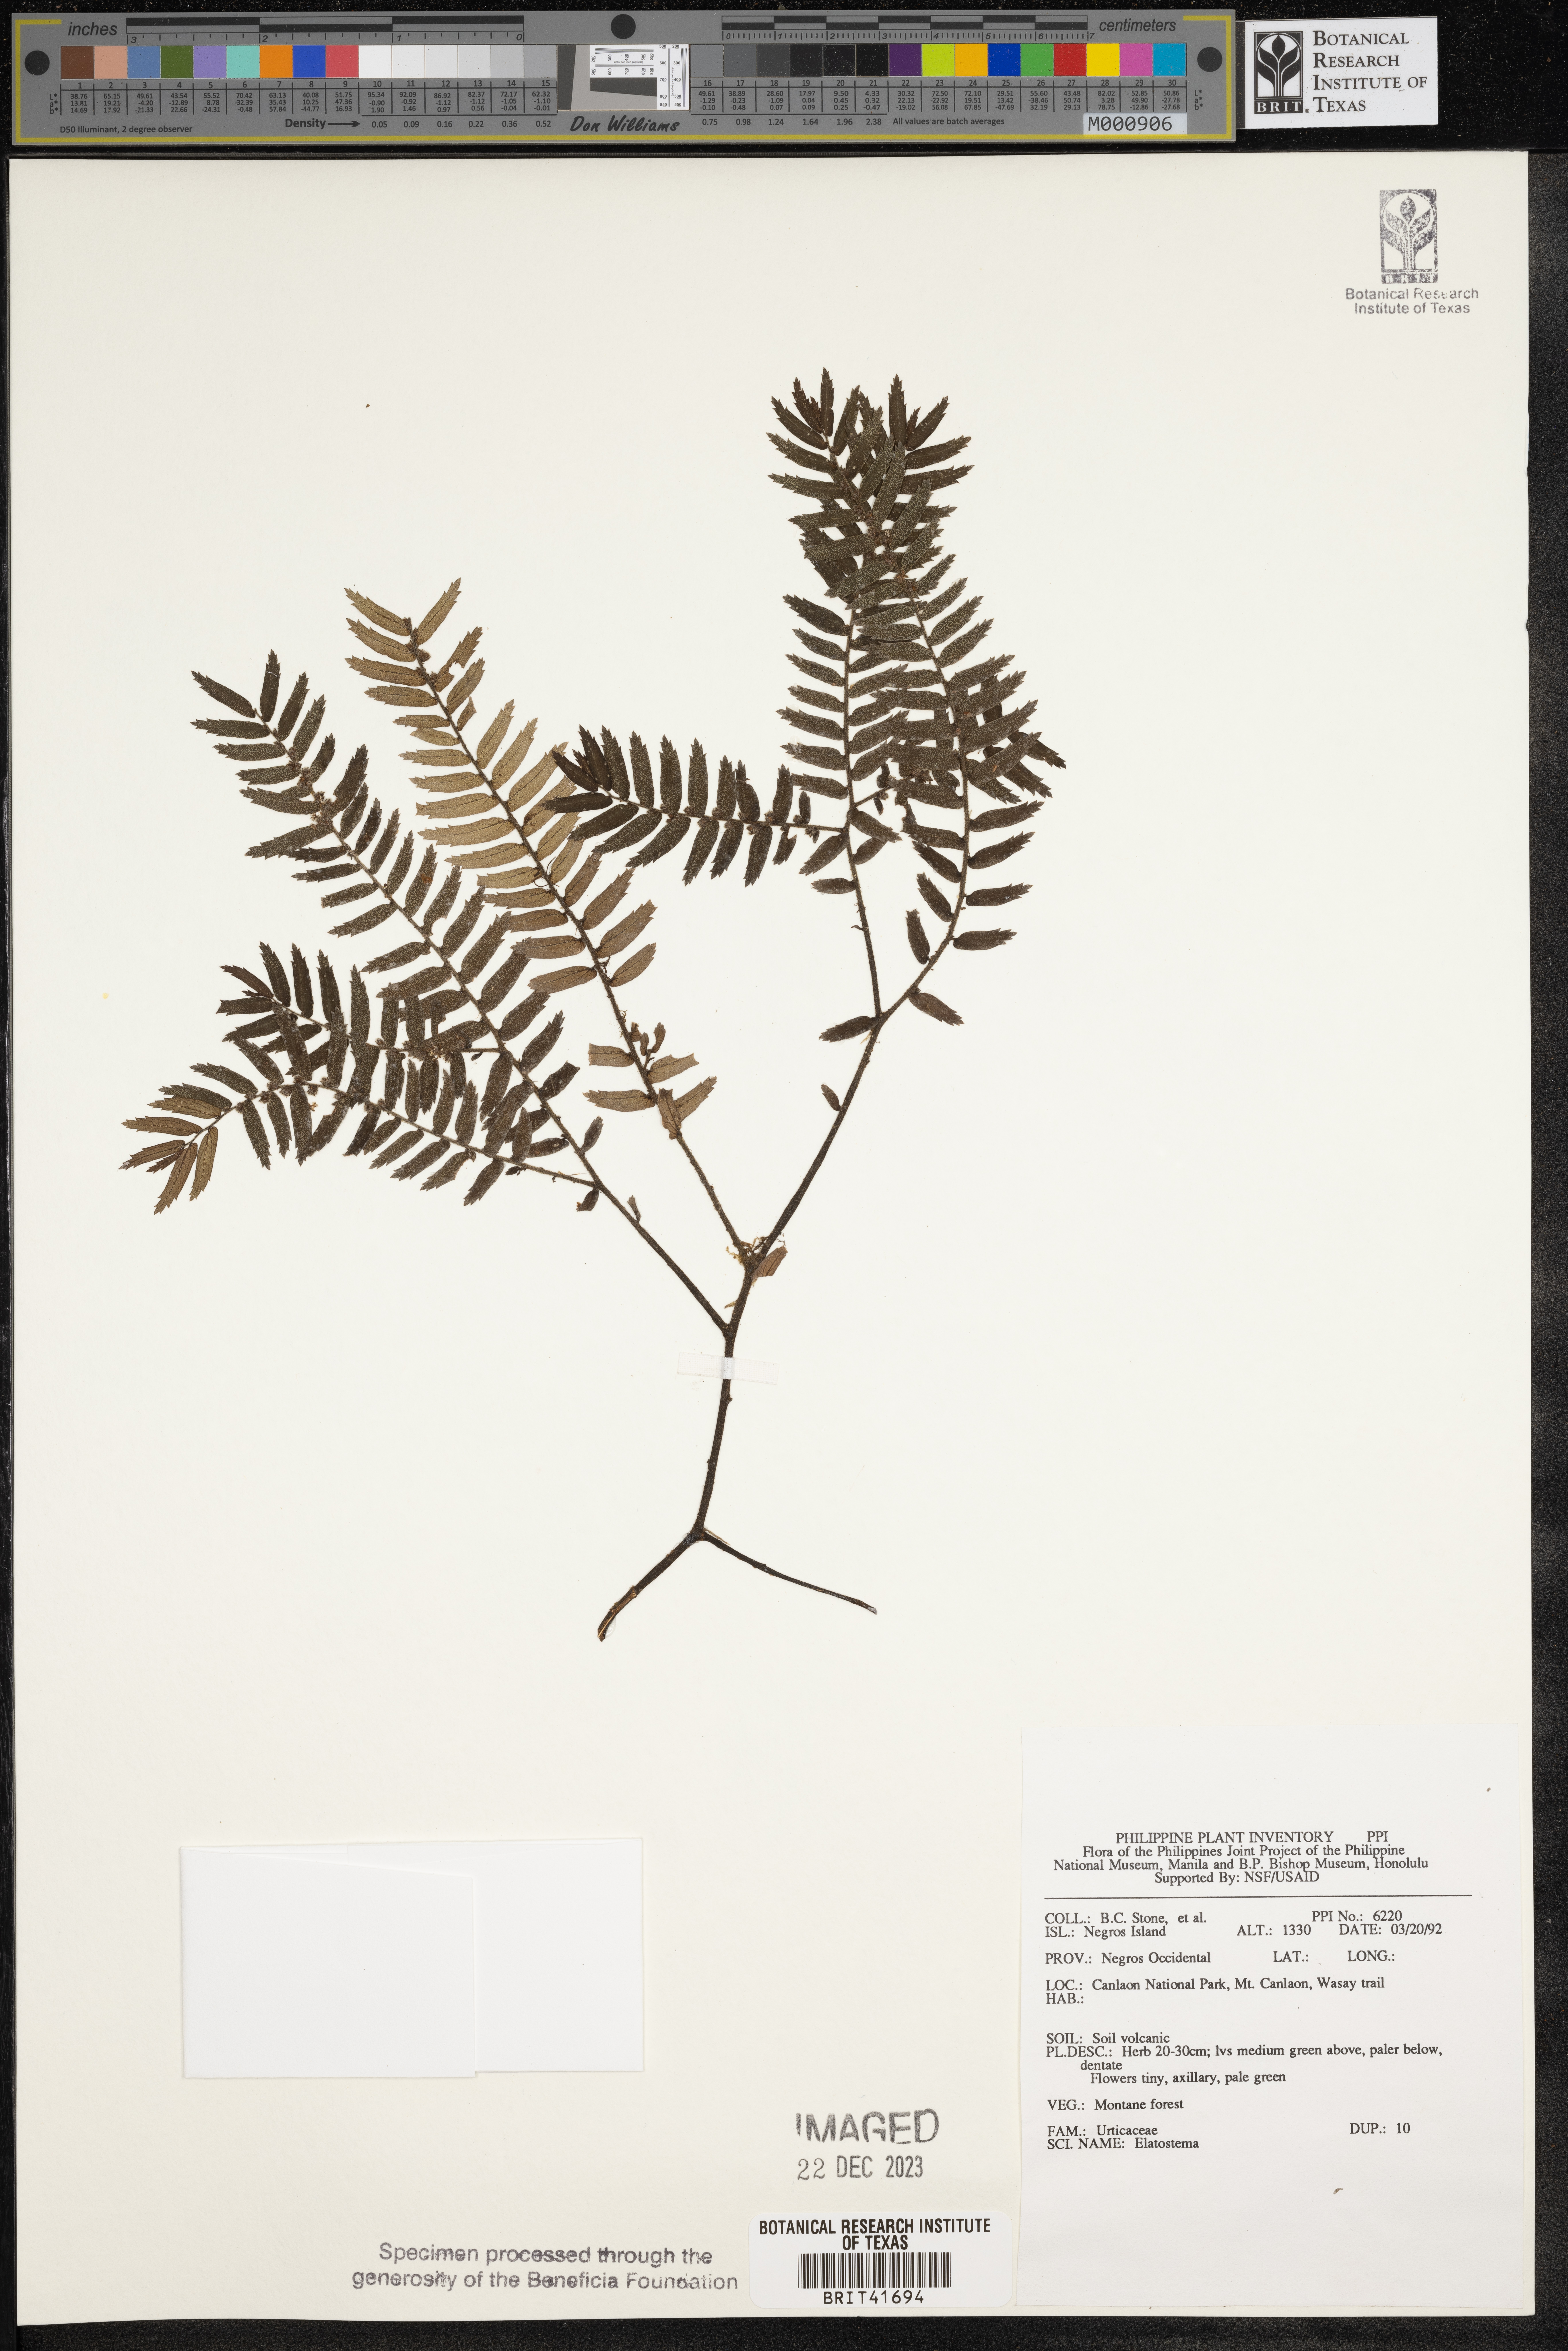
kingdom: Plantae
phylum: Tracheophyta
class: Magnoliopsida
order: Rosales
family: Urticaceae
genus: Elatostema
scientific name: Elatostema
